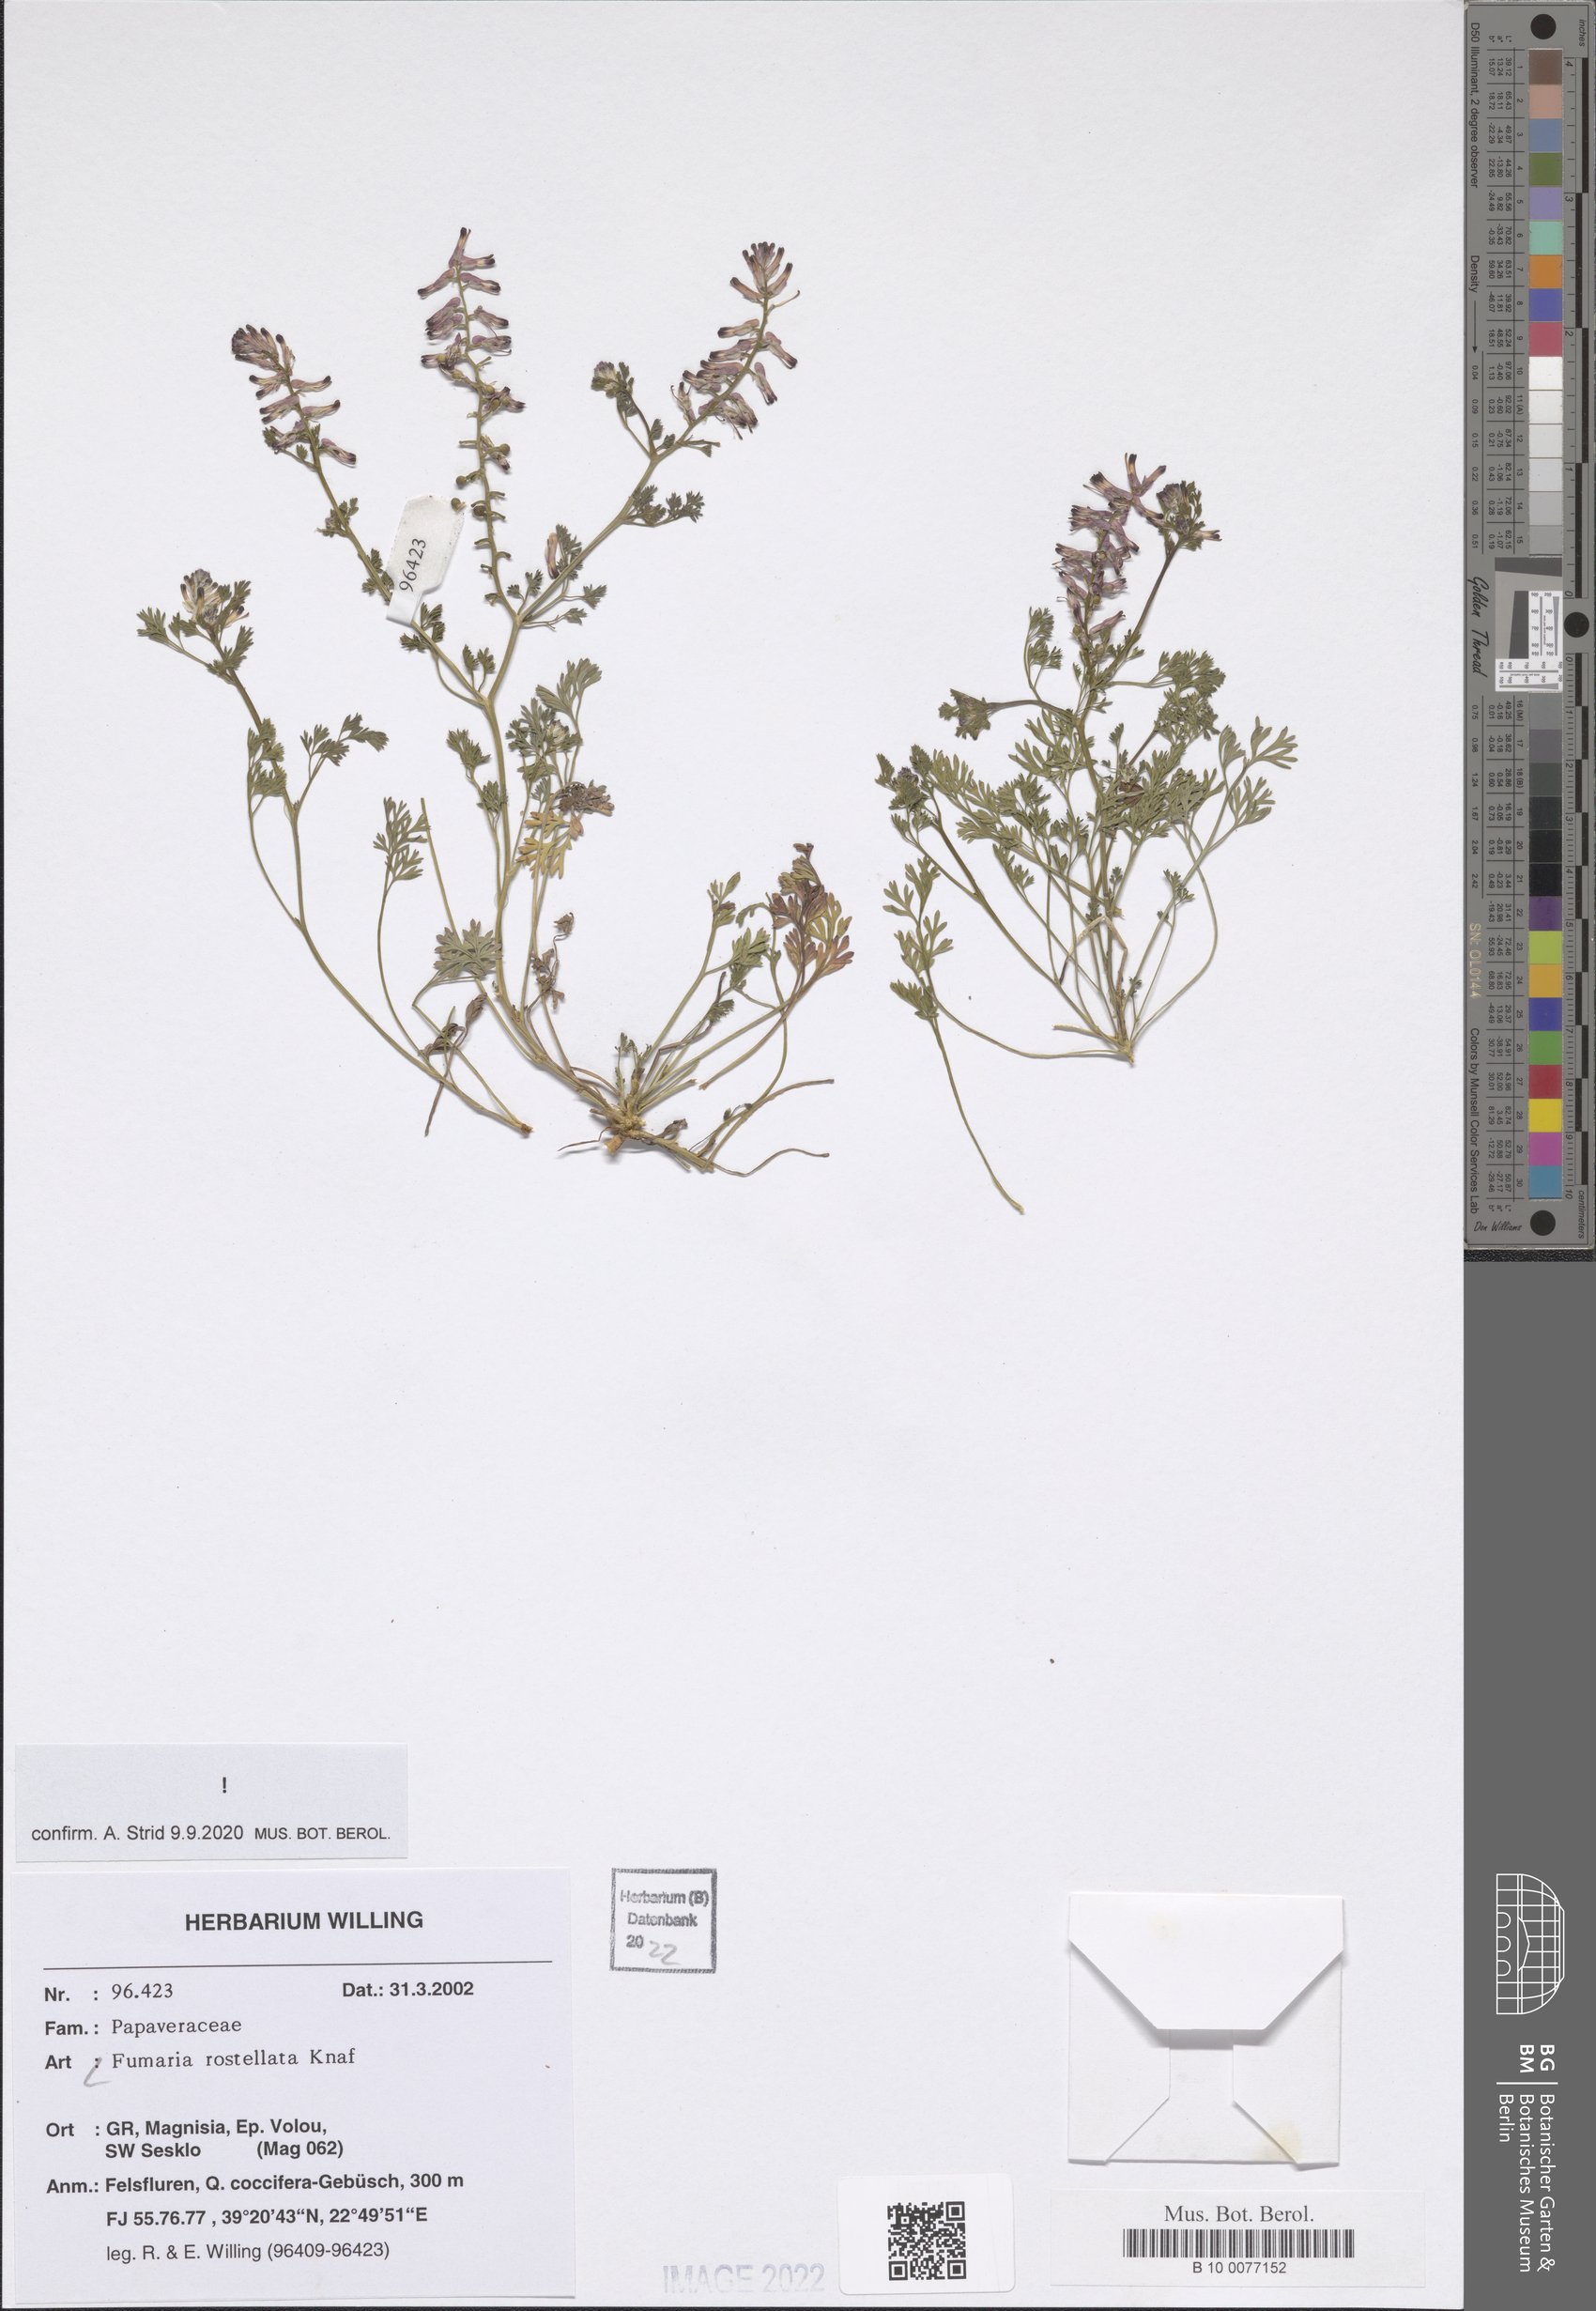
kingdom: Plantae
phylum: Tracheophyta
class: Magnoliopsida
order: Ranunculales
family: Papaveraceae
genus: Fumaria
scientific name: Fumaria rostellata
